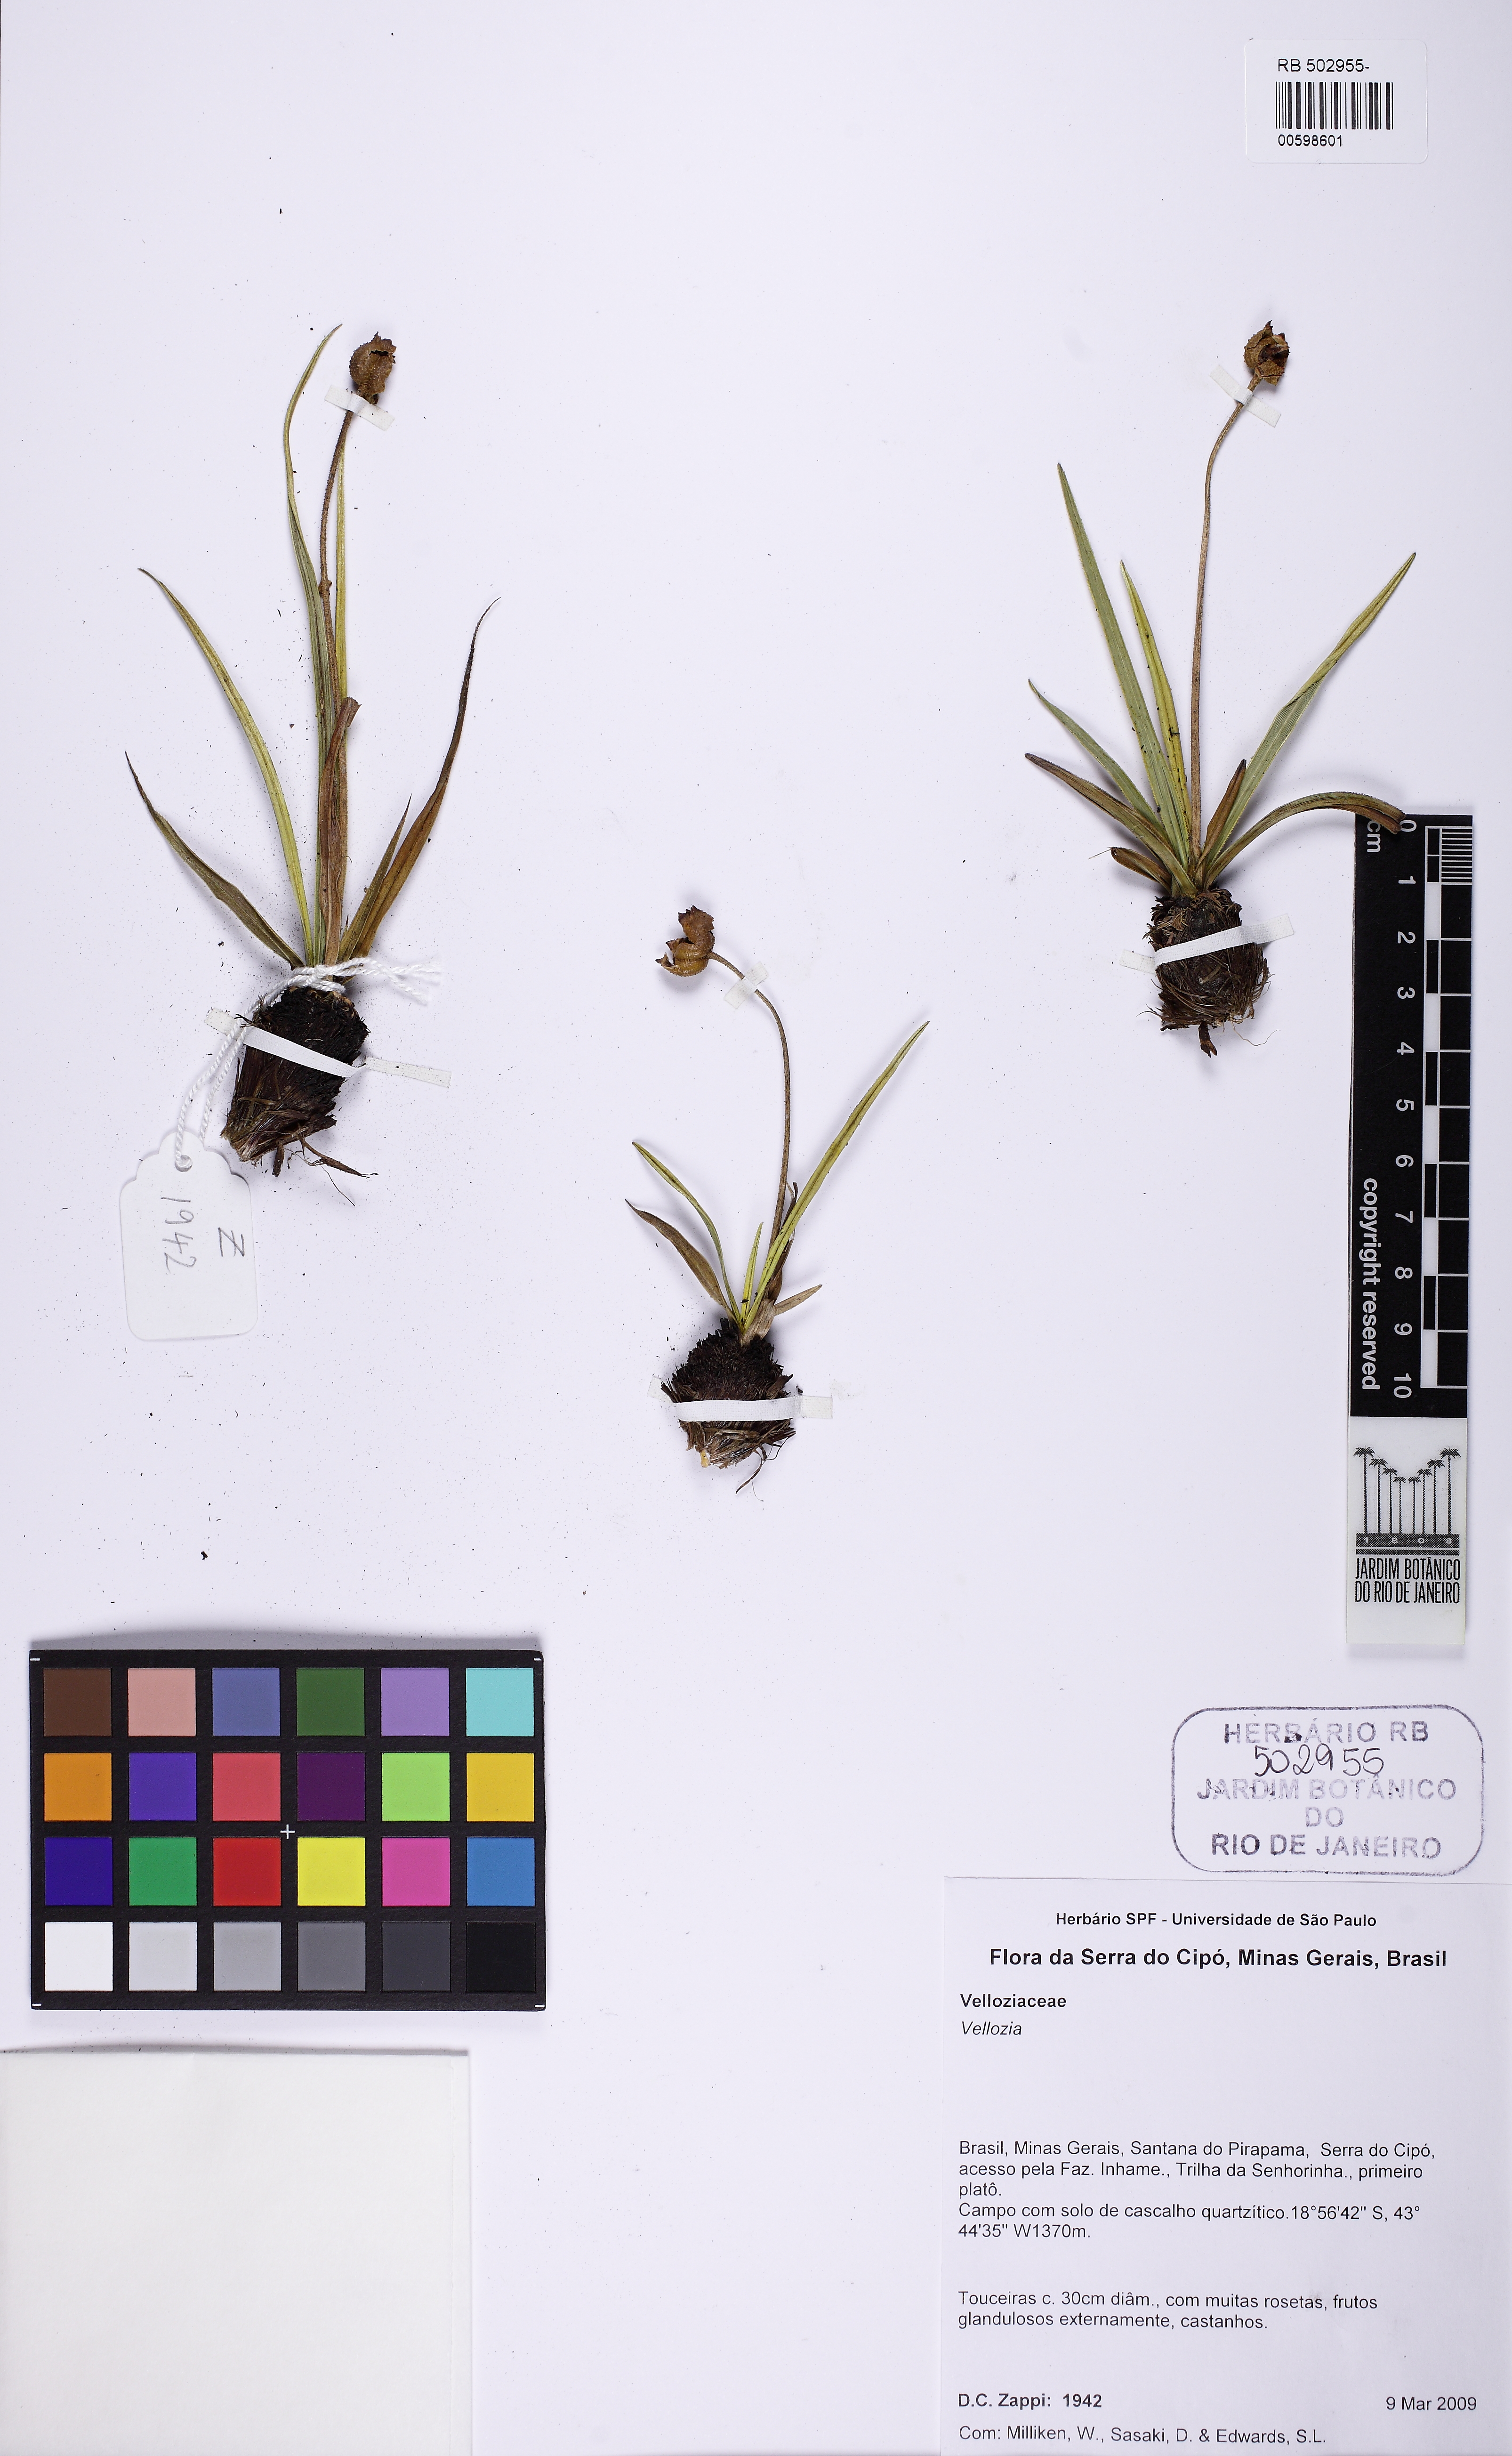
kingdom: Plantae
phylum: Tracheophyta
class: Liliopsida
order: Pandanales
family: Velloziaceae
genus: Vellozia
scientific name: Vellozia
